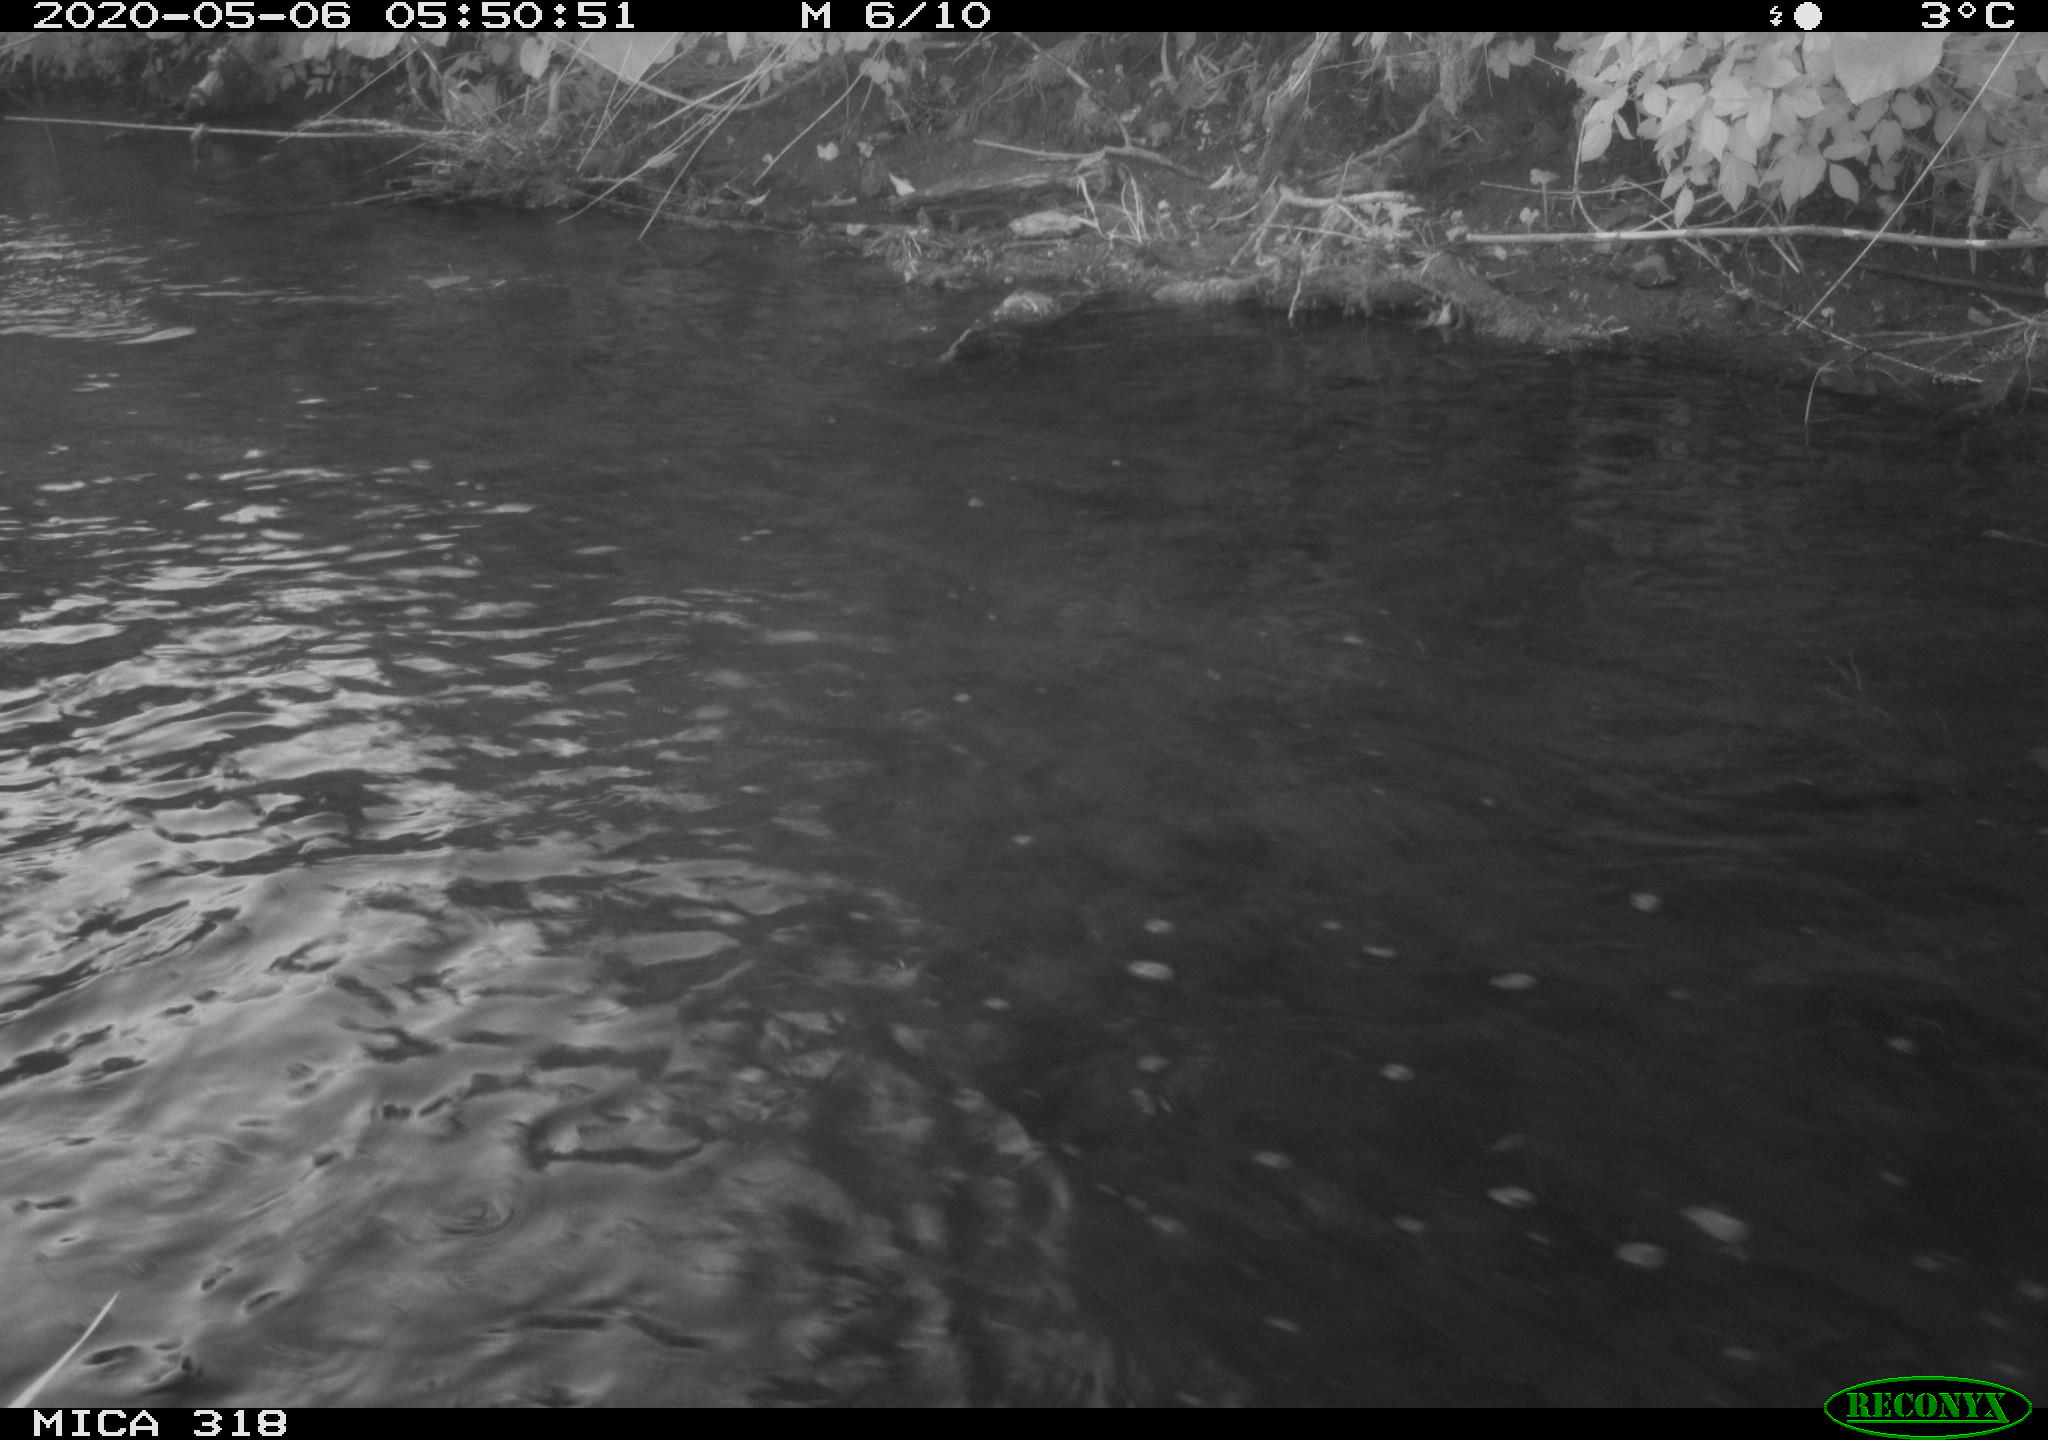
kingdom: Animalia
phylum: Chordata
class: Aves
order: Gruiformes
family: Rallidae
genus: Gallinula
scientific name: Gallinula chloropus
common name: Common moorhen
